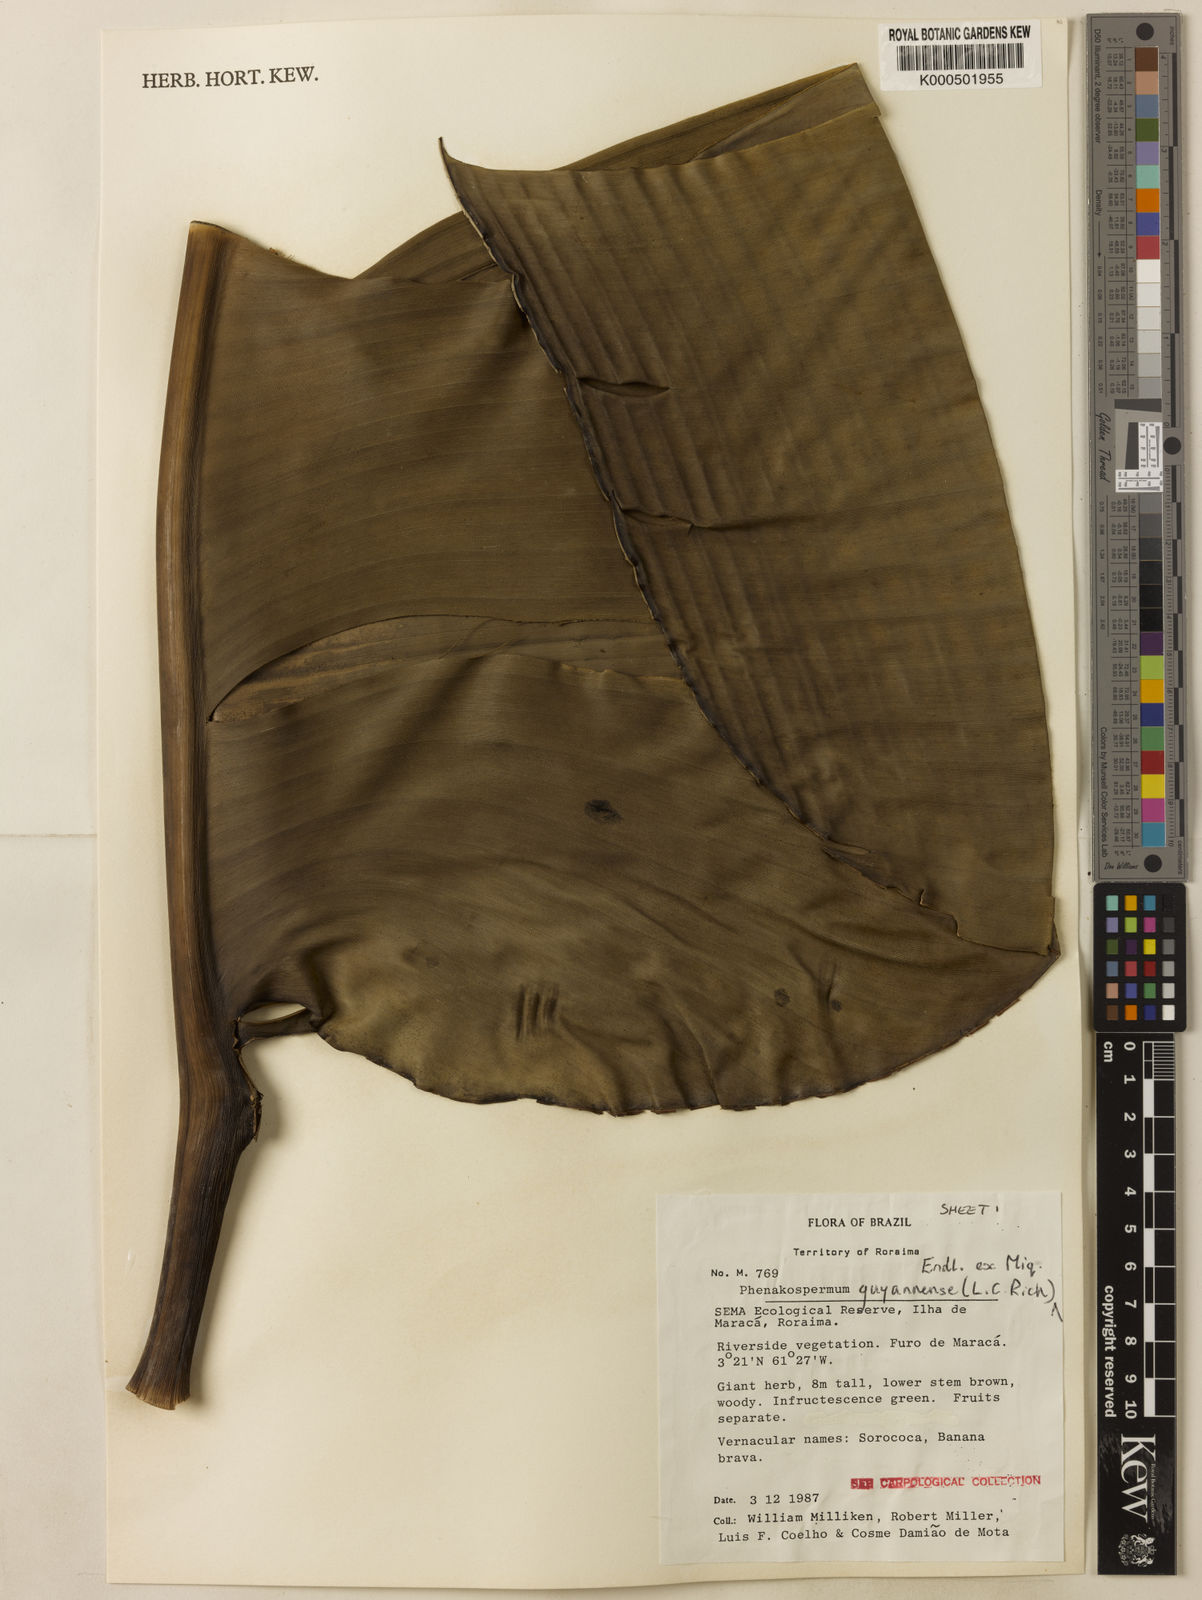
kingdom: Plantae
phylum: Tracheophyta
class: Liliopsida
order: Zingiberales
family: Strelitziaceae
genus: Phenakospermum
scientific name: Phenakospermum guyannense
